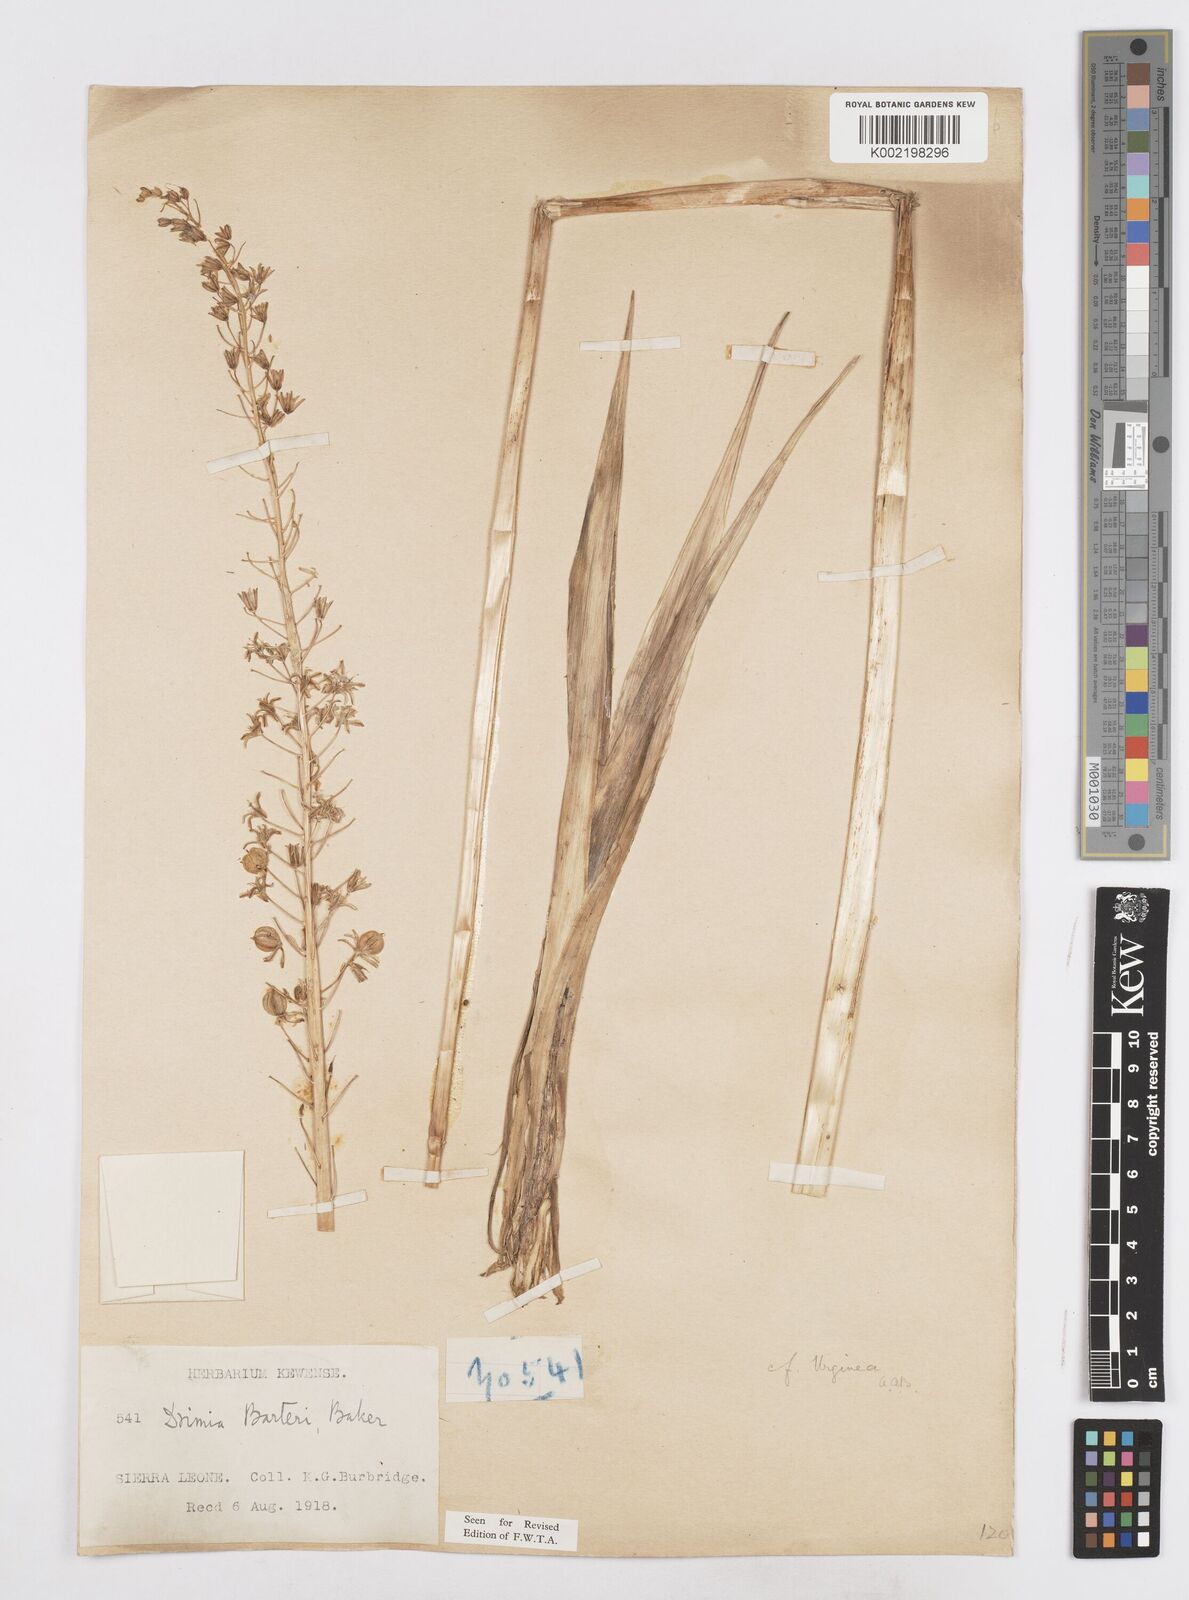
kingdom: Plantae
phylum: Tracheophyta
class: Liliopsida
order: Asparagales
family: Asparagaceae
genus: Drimia
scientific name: Drimia altissima
